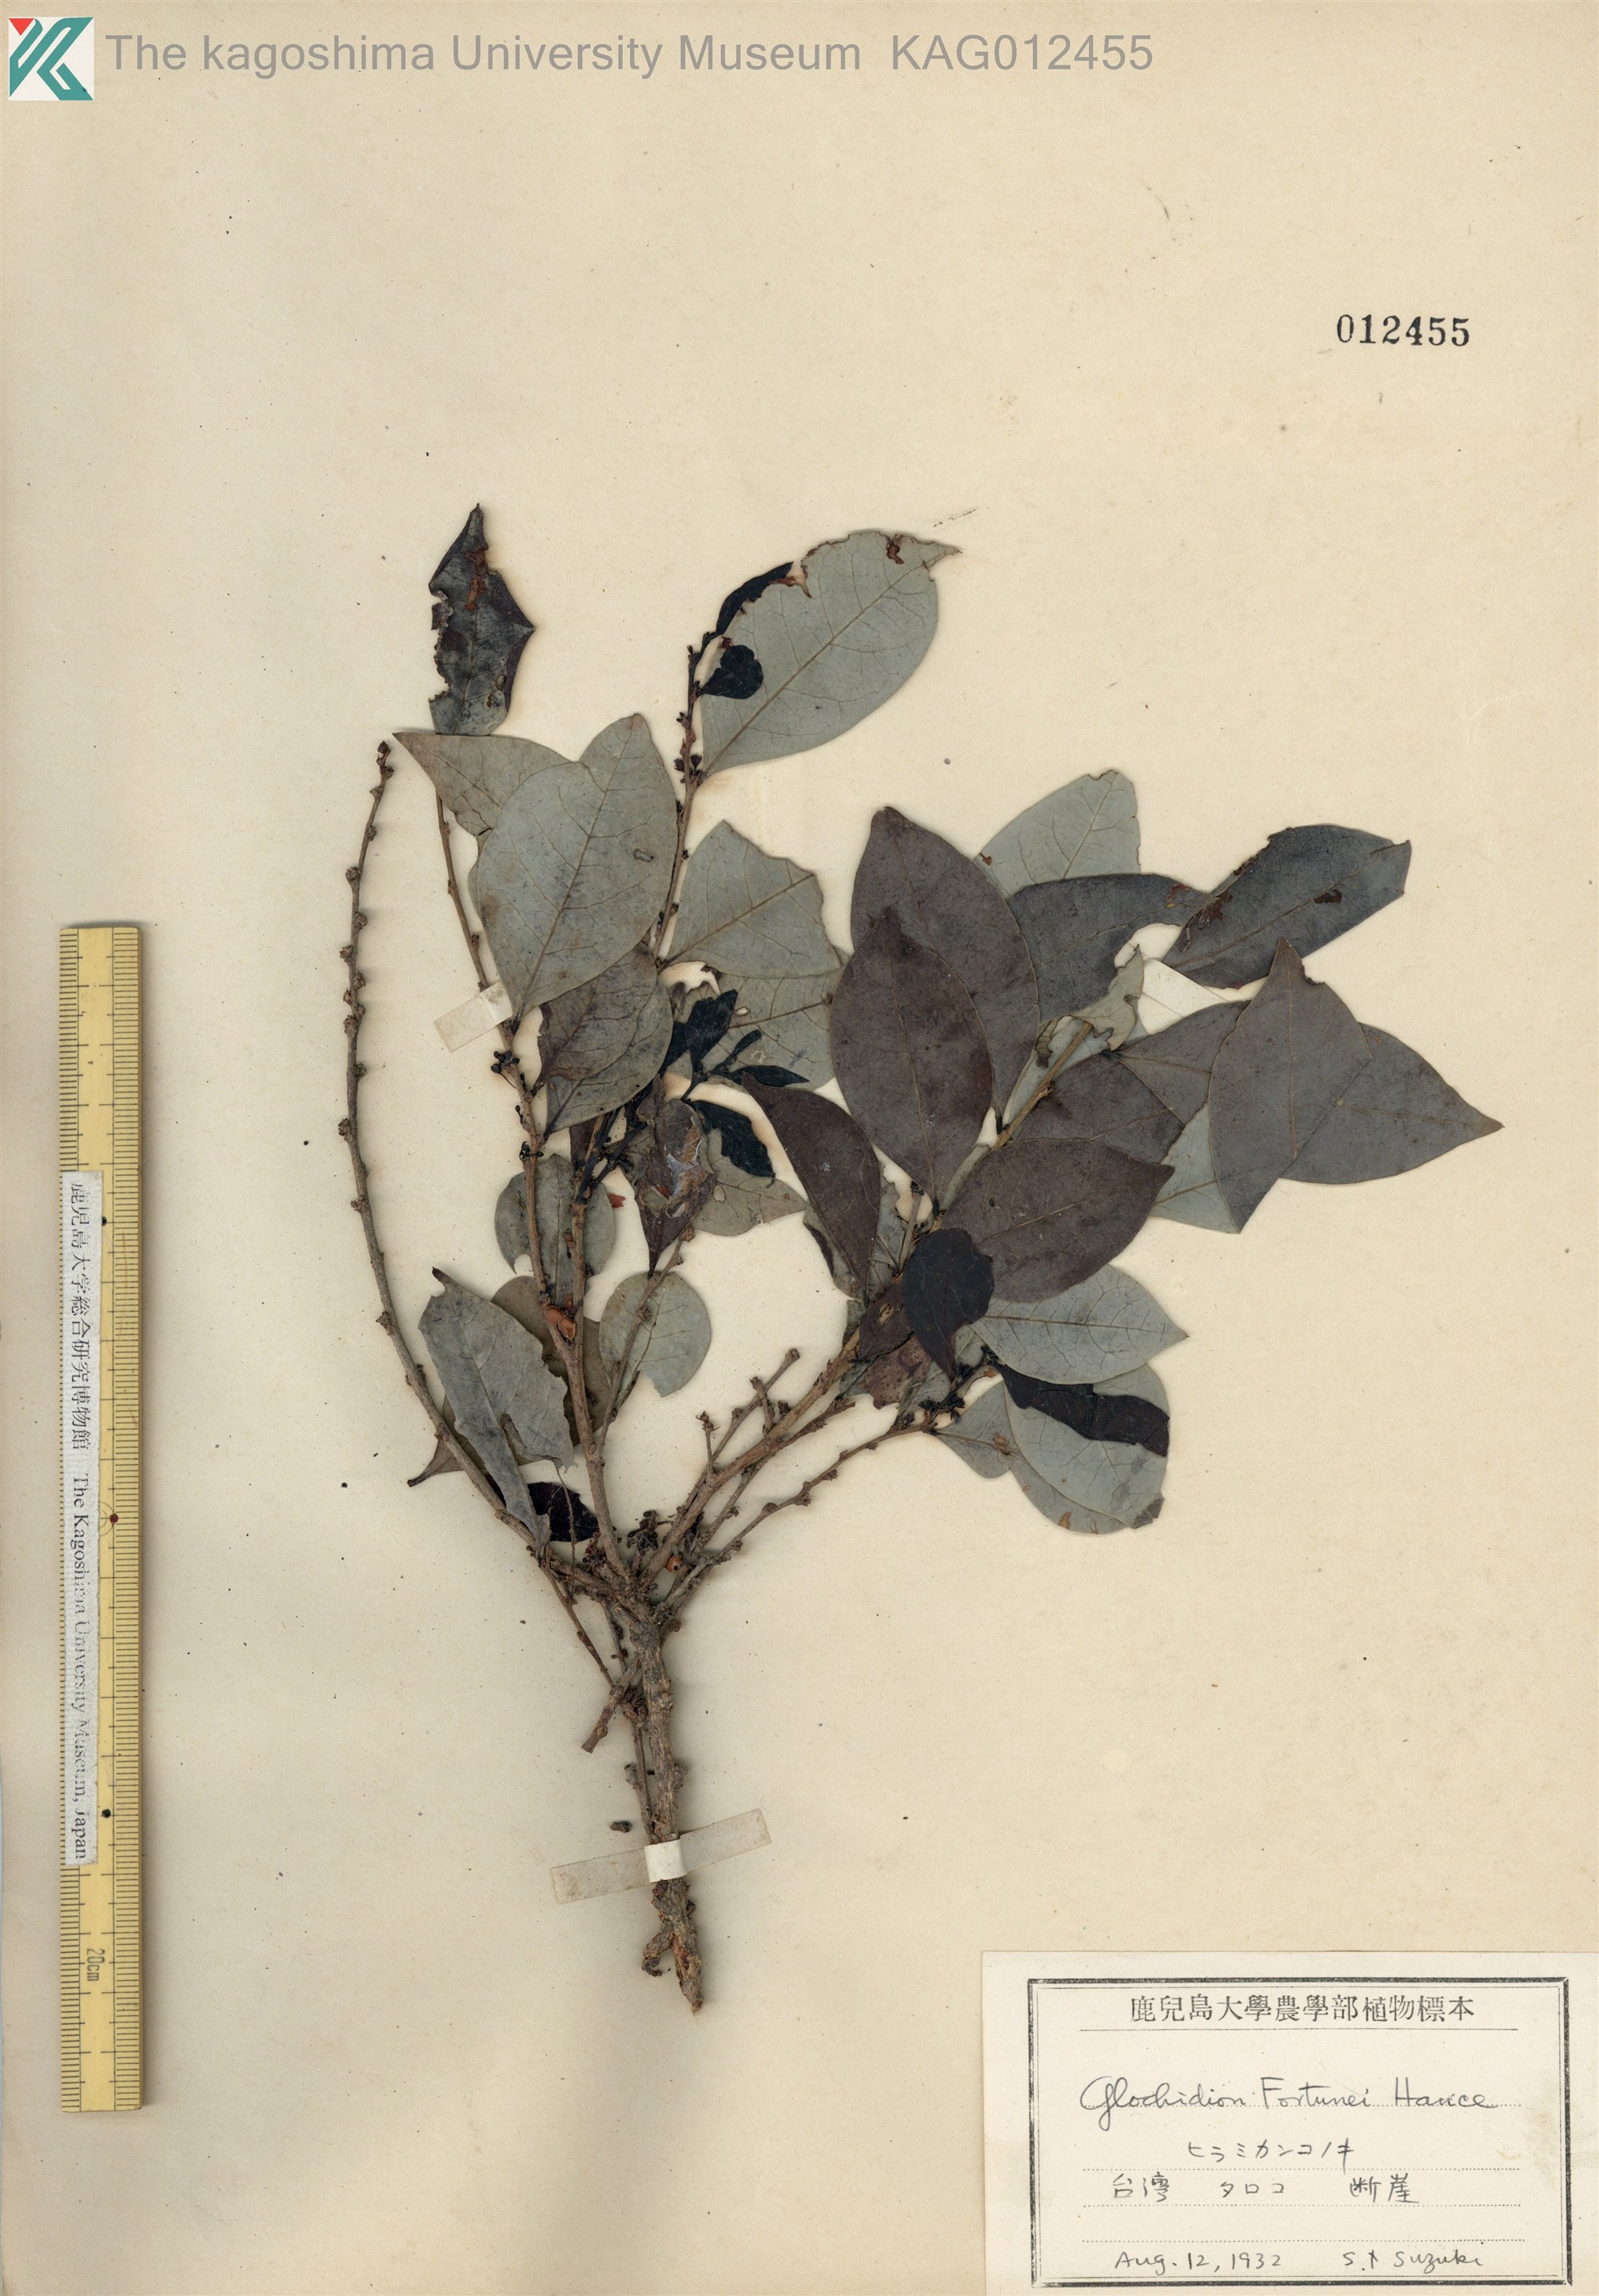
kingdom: Plantae
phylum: Tracheophyta
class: Magnoliopsida
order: Malpighiales
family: Phyllanthaceae
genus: Glochidion
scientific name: Glochidion rubrum
